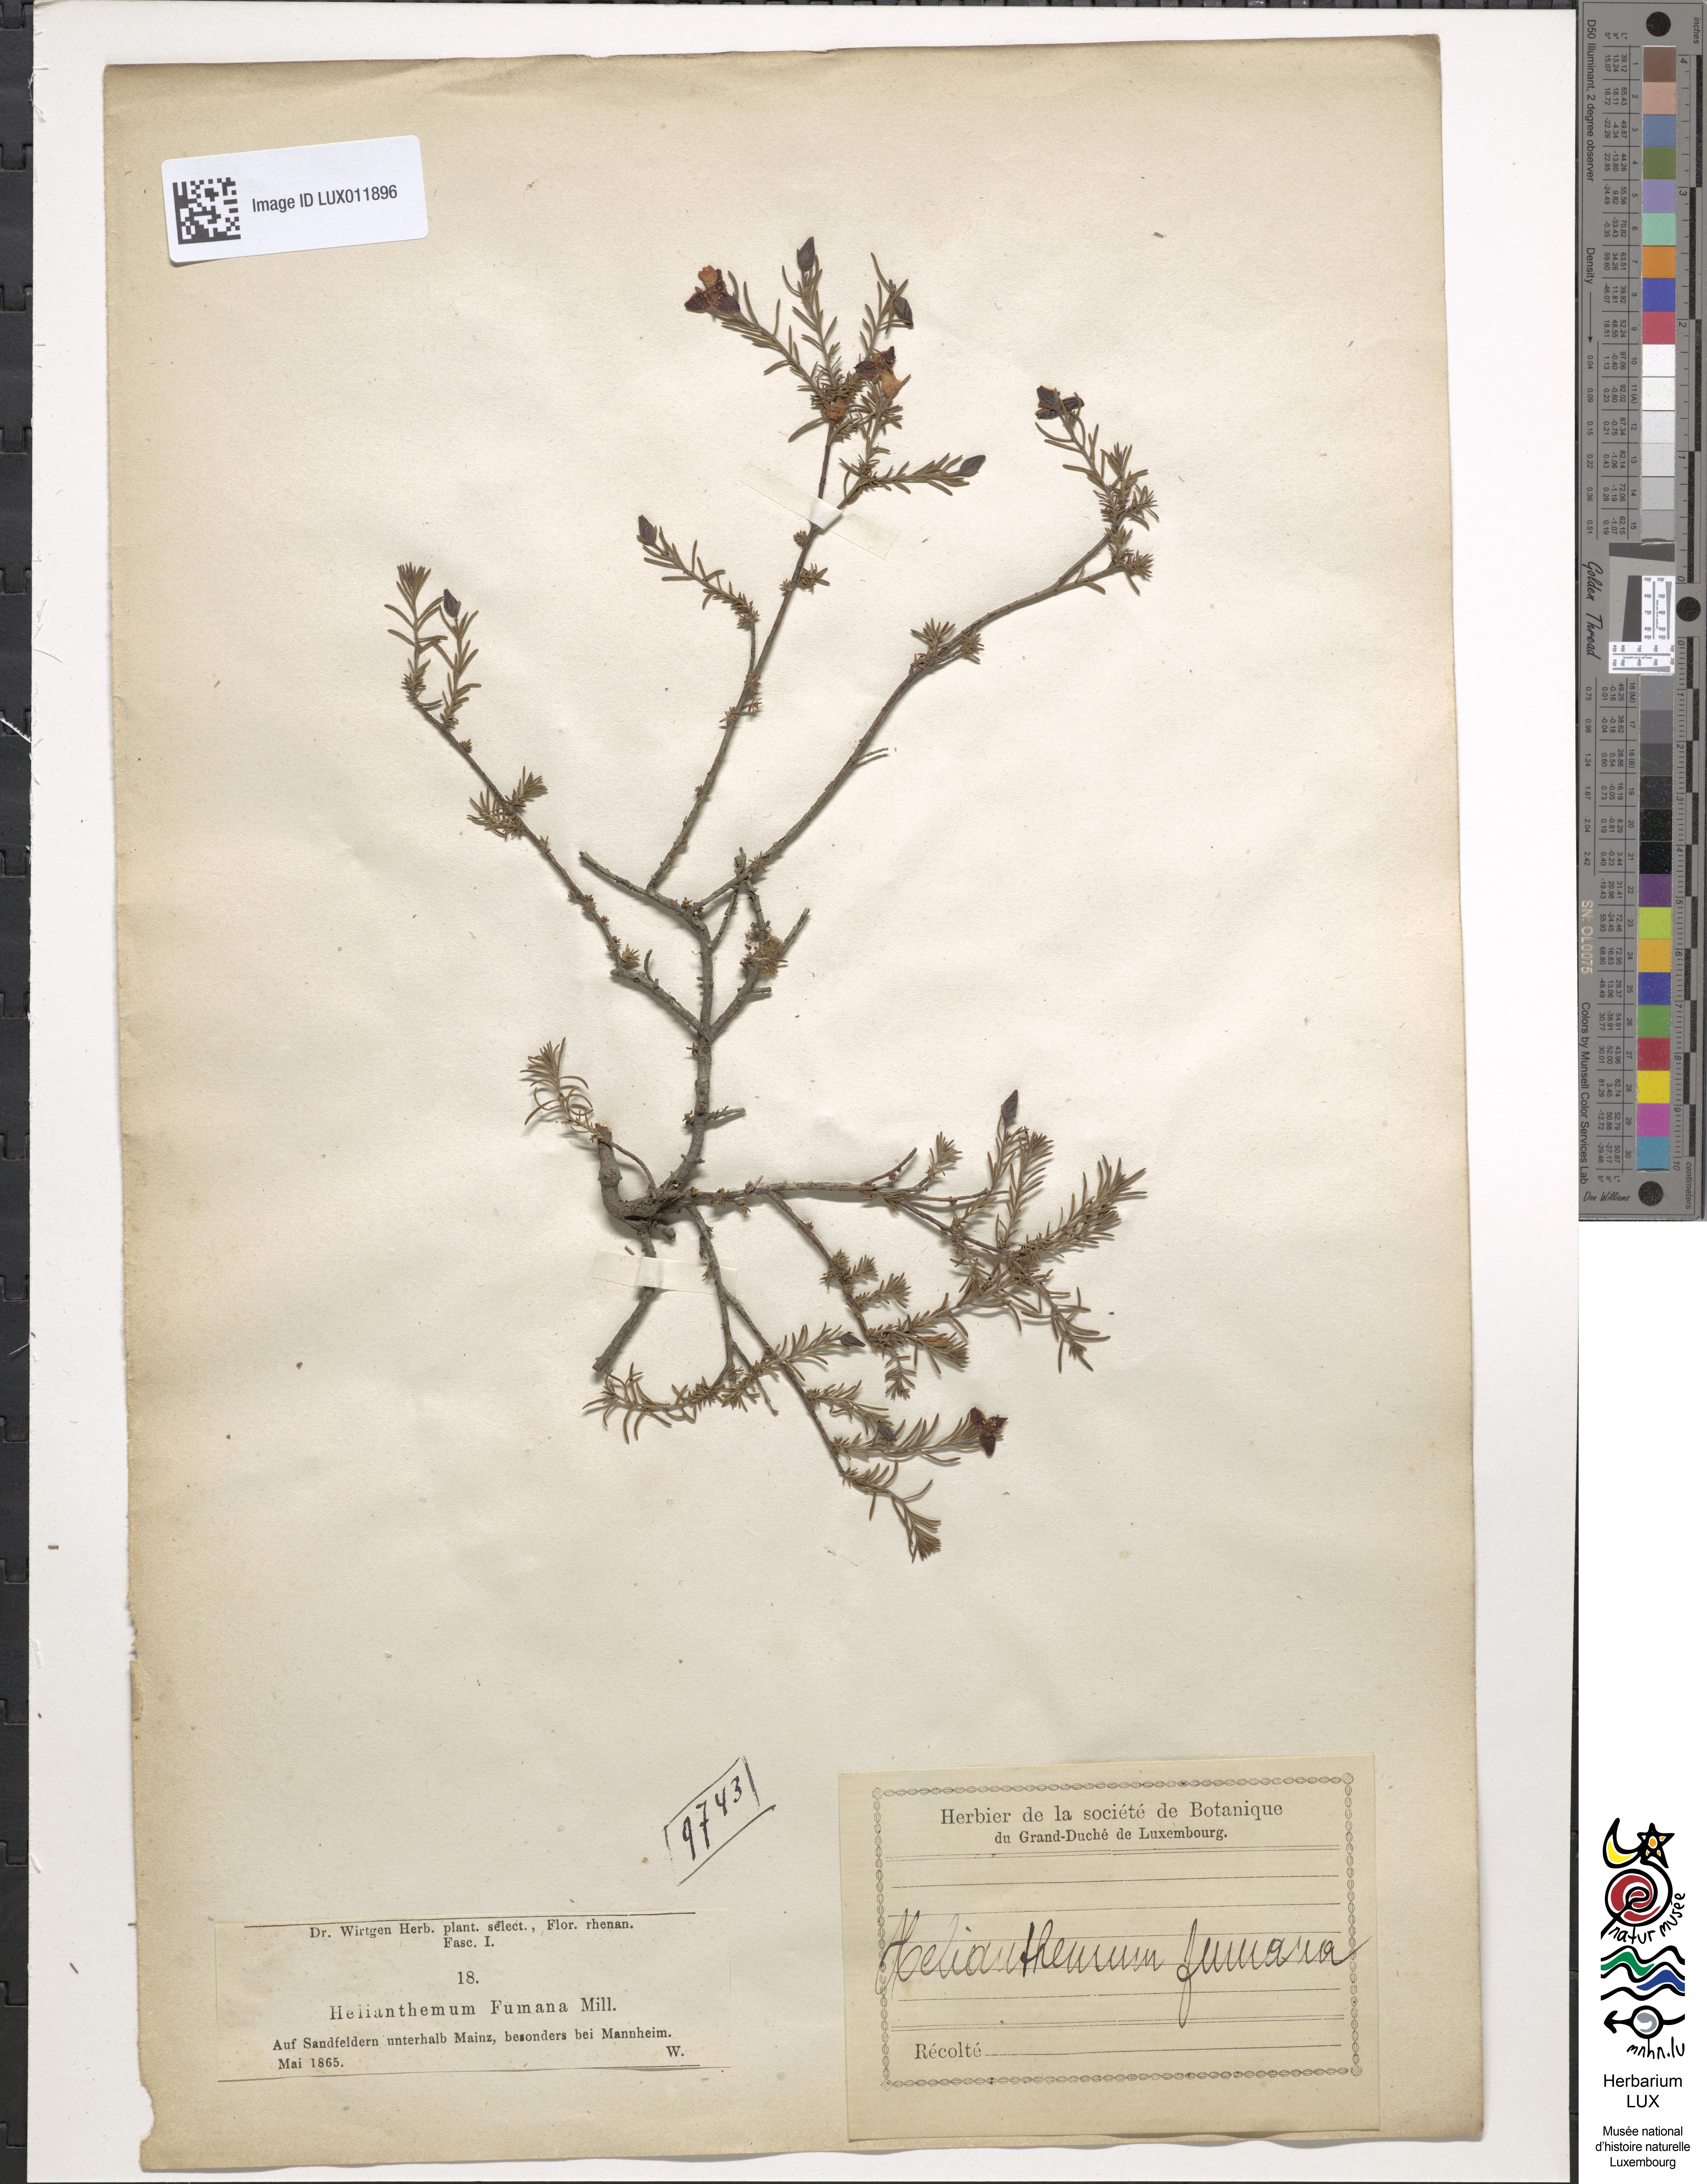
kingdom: Plantae
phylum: Tracheophyta
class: Magnoliopsida
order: Malvales
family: Cistaceae
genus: Fumana
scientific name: Fumana ericoides
